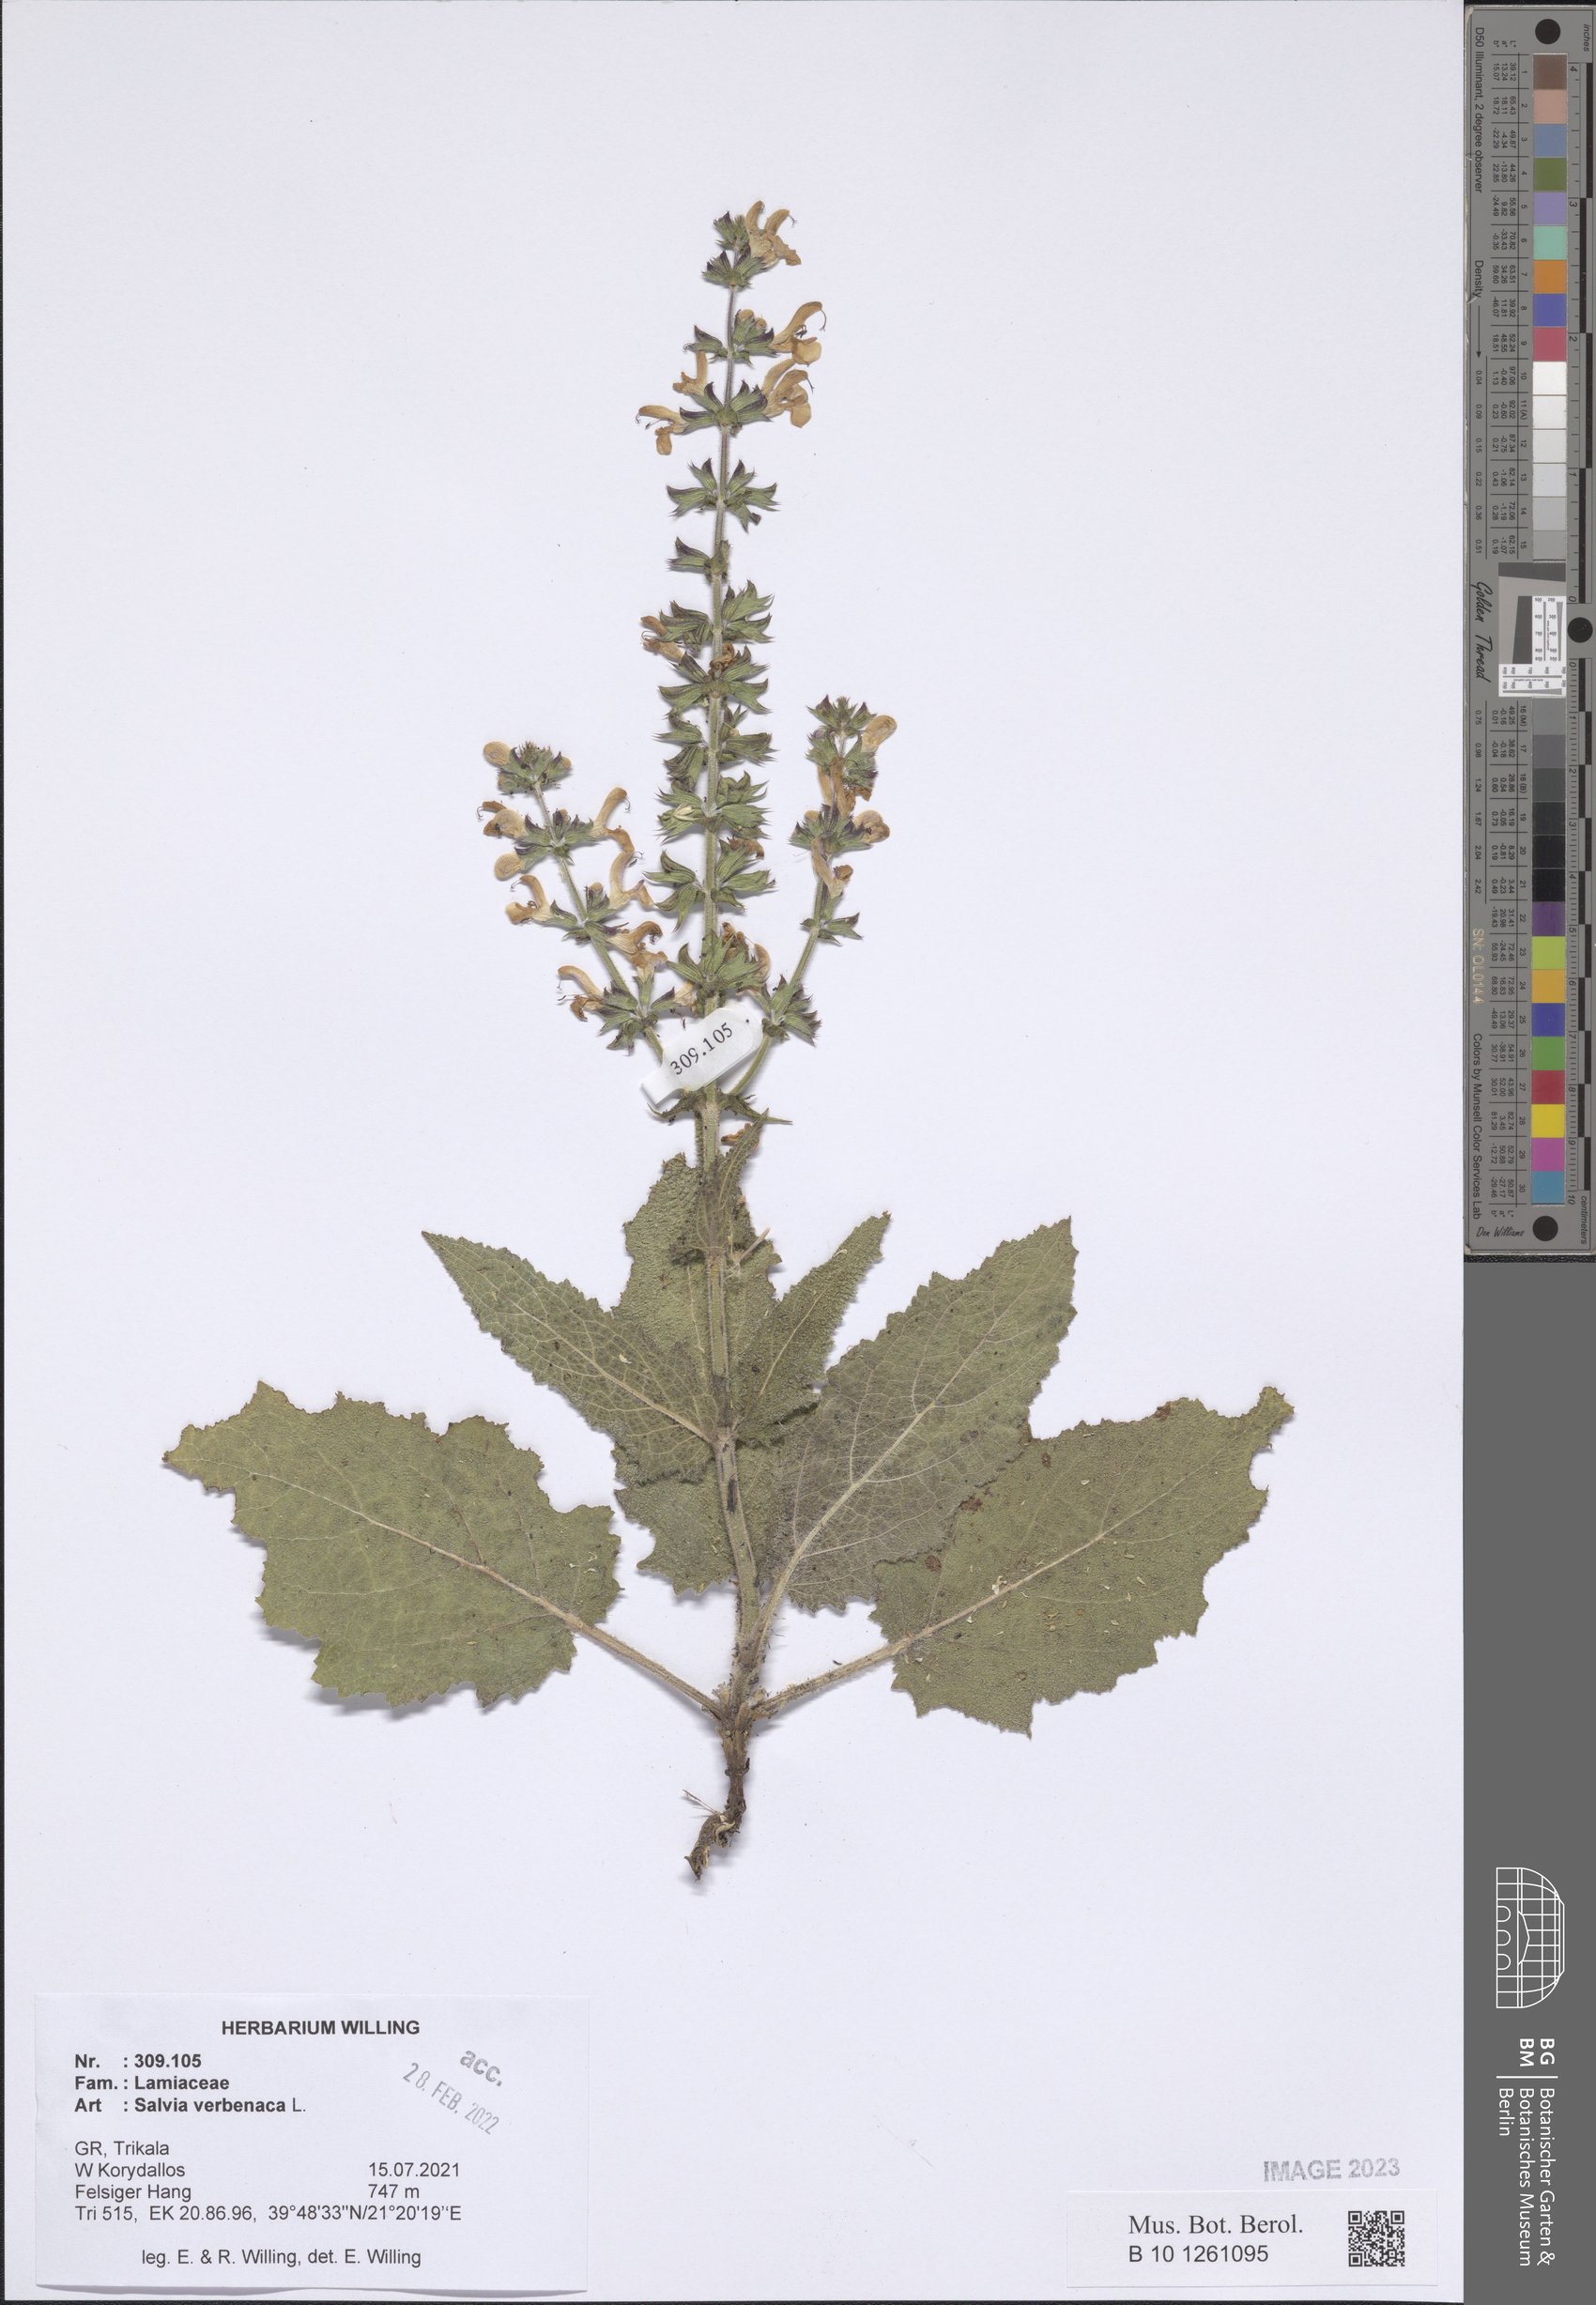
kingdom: Plantae
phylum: Tracheophyta
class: Magnoliopsida
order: Lamiales
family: Lamiaceae
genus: Salvia
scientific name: Salvia verbenaca
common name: Wild clary
